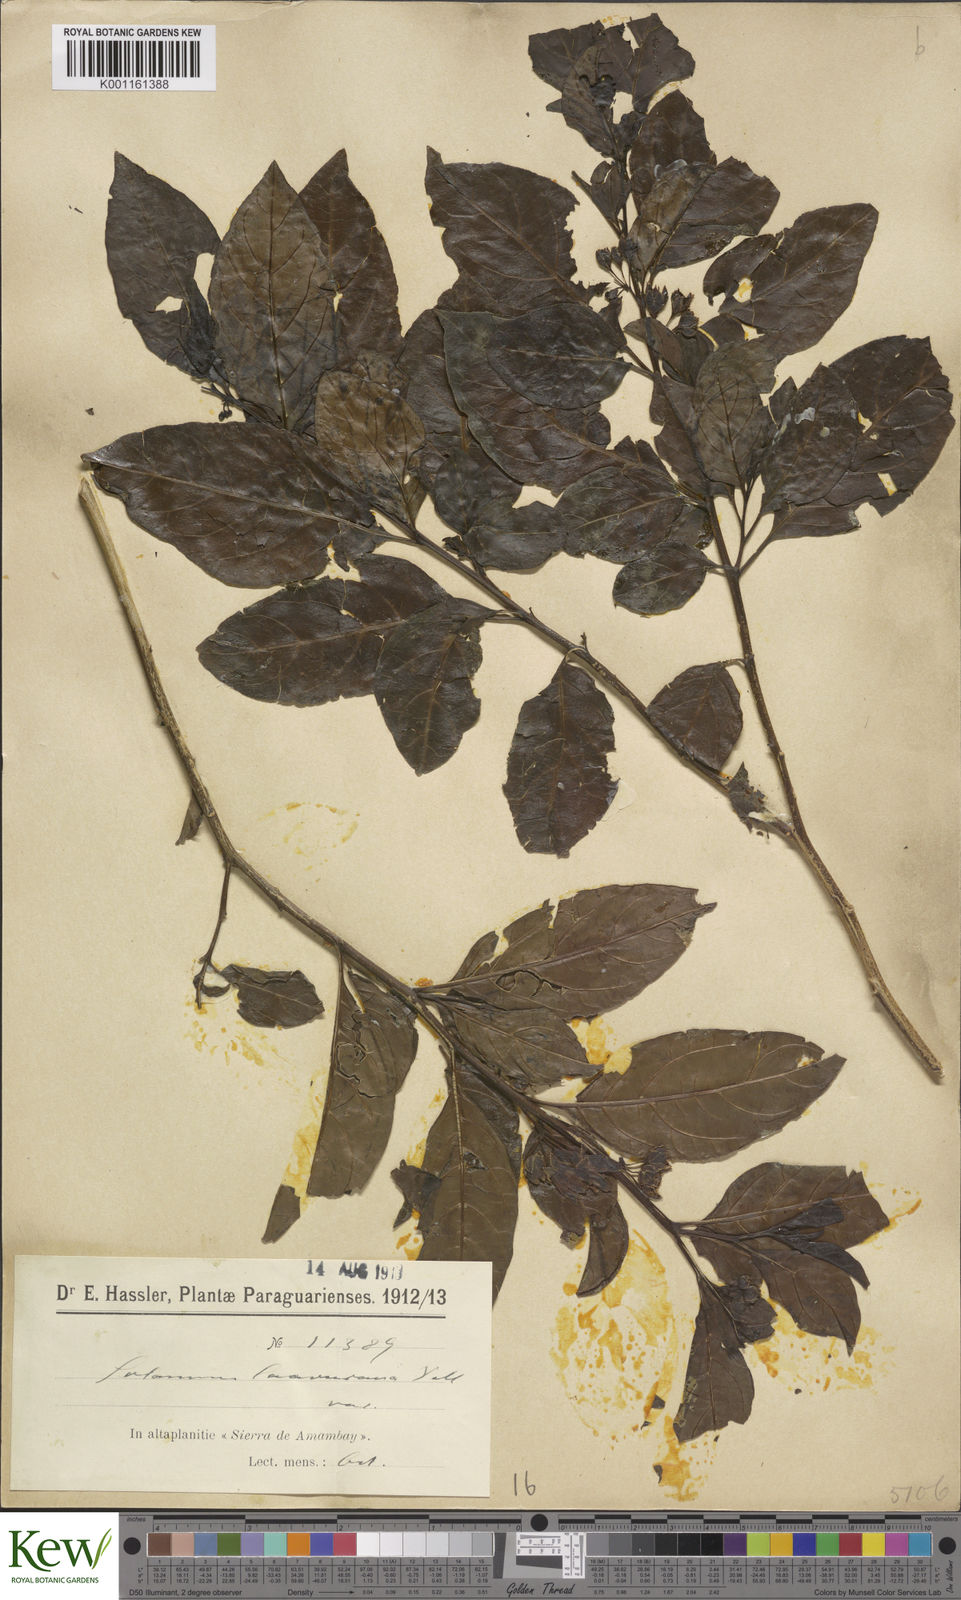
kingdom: Plantae
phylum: Tracheophyta
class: Magnoliopsida
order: Solanales
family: Solanaceae
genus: Solanum
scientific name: Solanum caavurana
